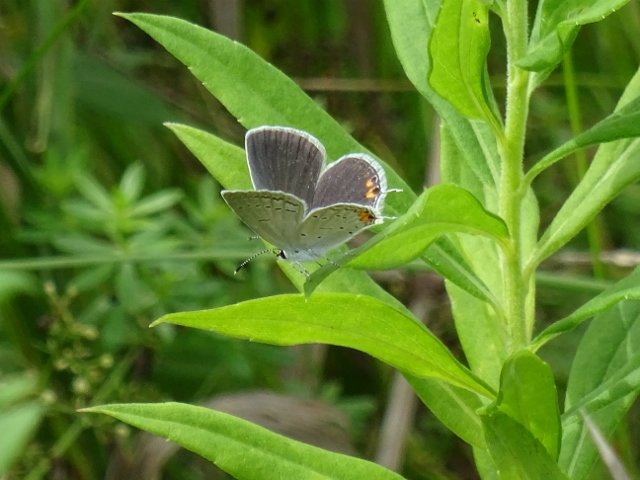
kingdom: Animalia
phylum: Arthropoda
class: Insecta
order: Lepidoptera
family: Lycaenidae
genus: Elkalyce
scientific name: Elkalyce comyntas
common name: Eastern Tailed-Blue
